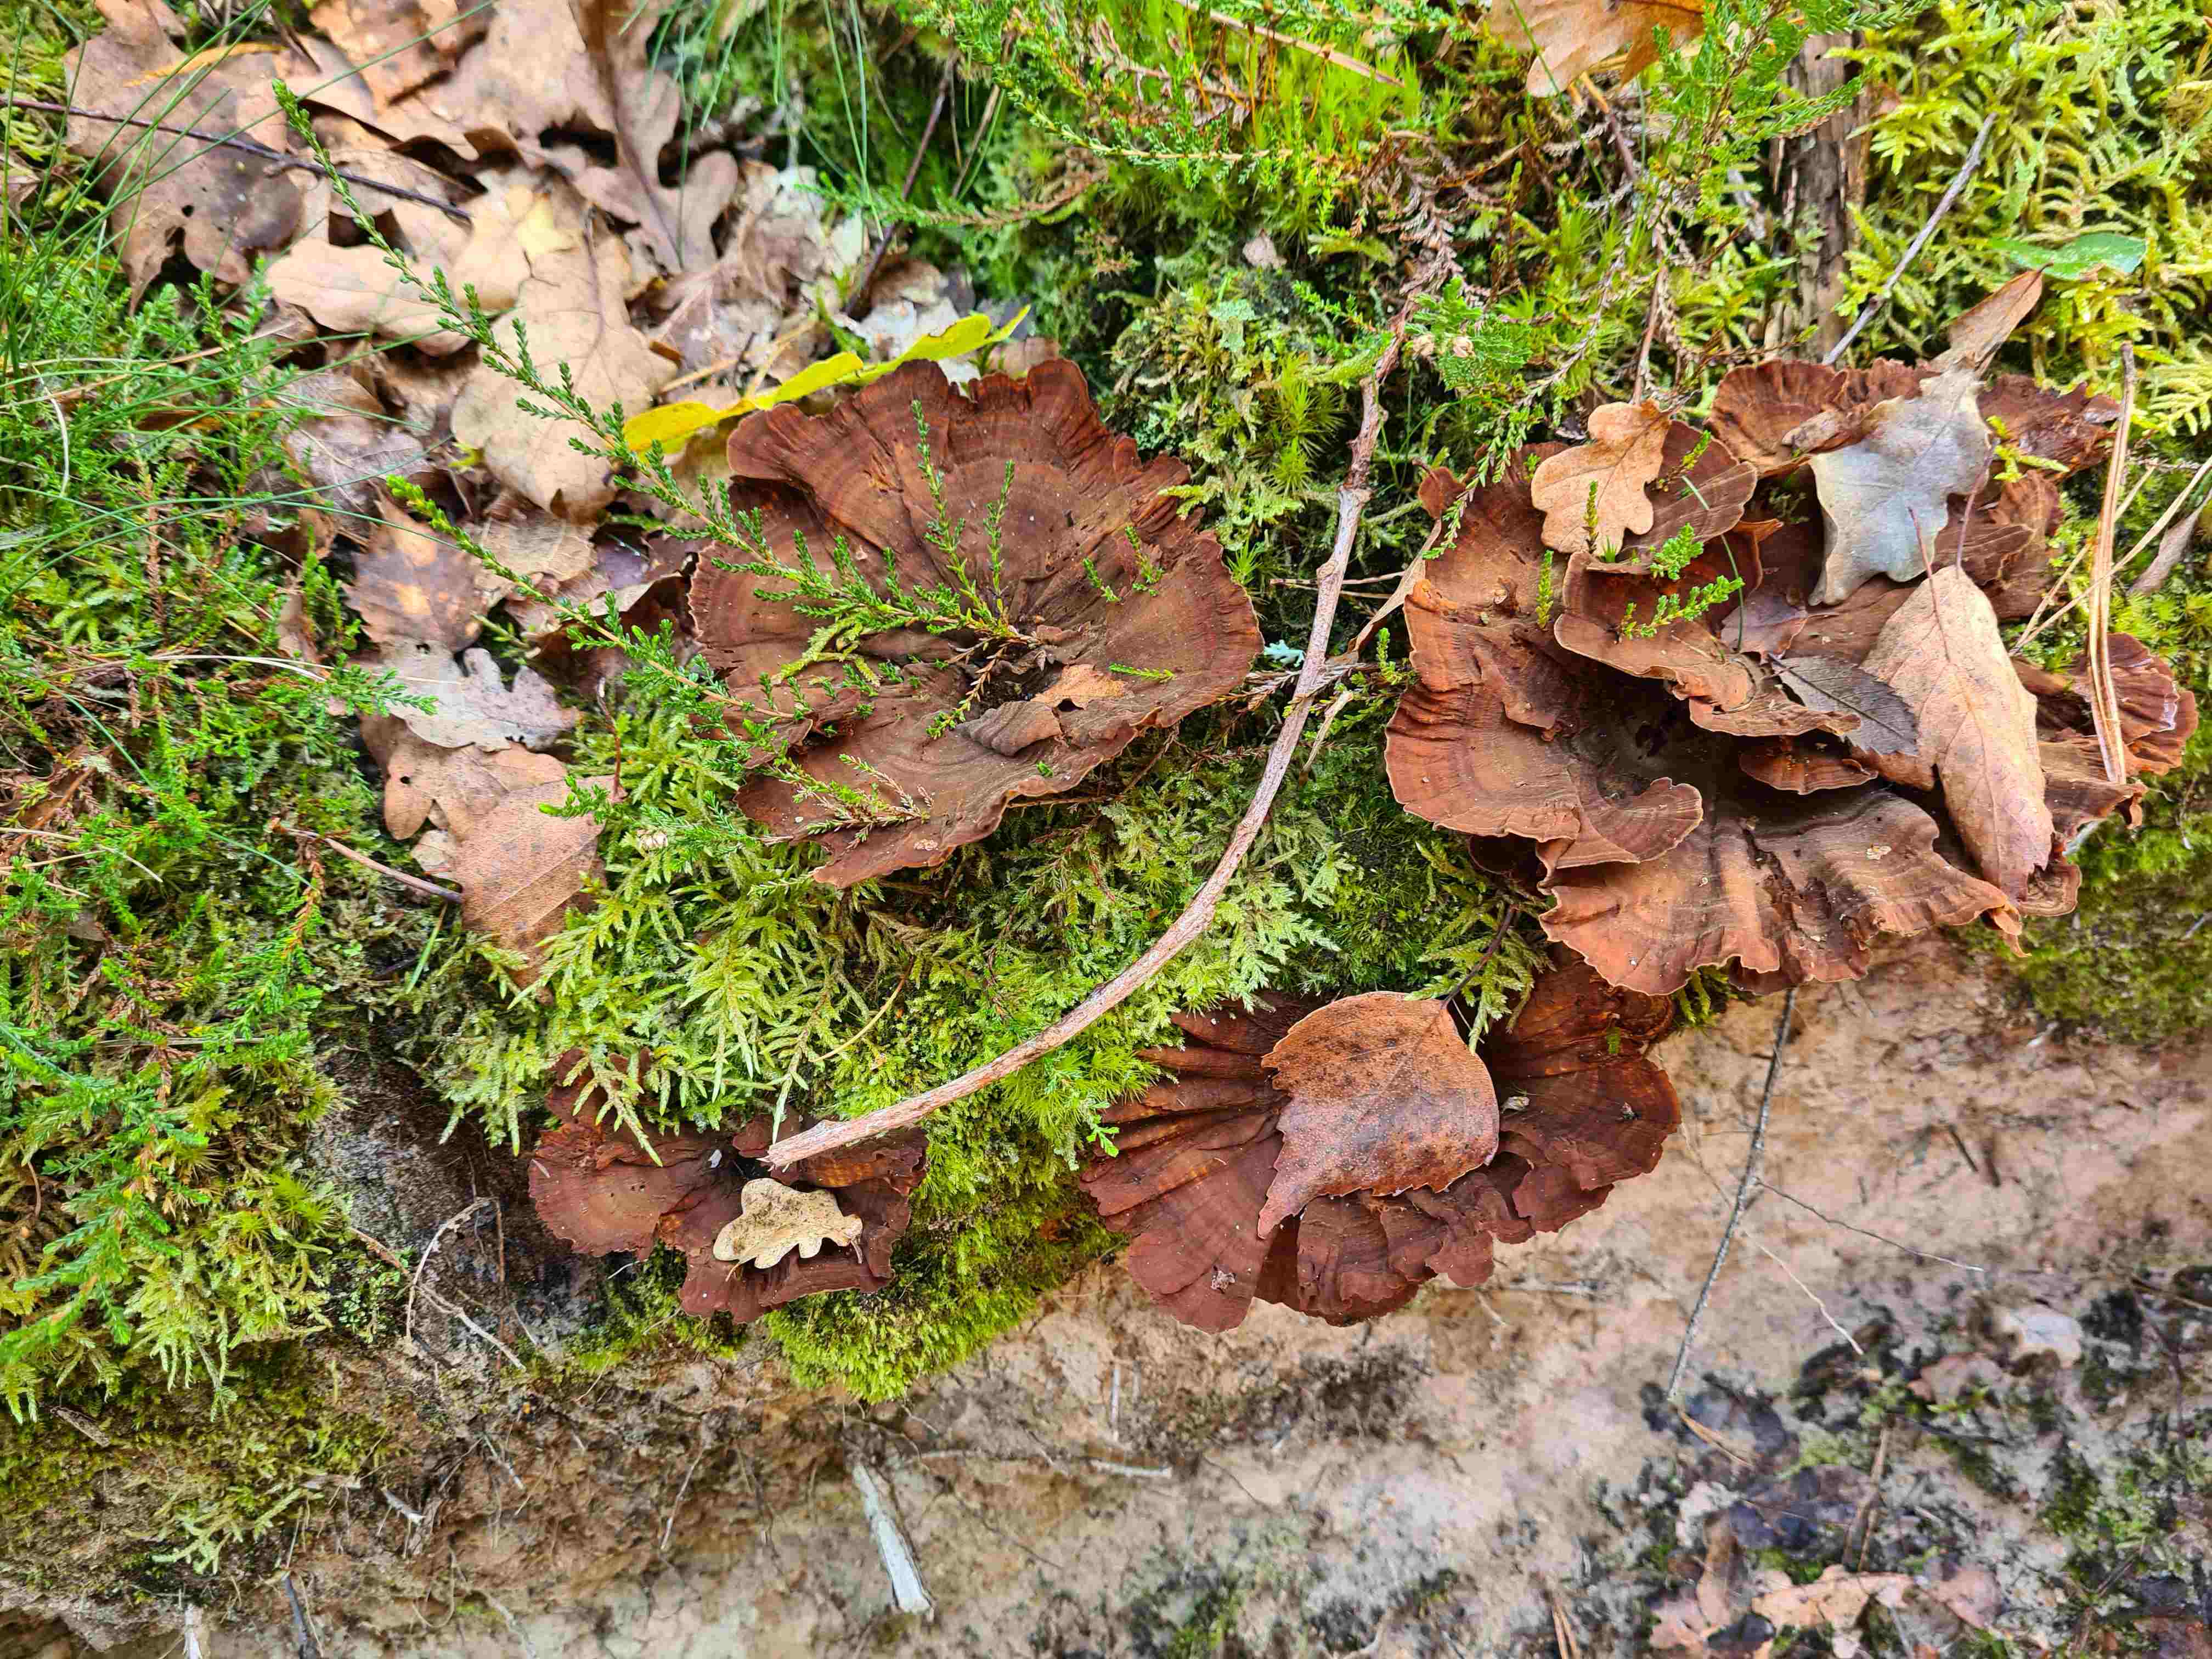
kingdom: Fungi
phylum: Basidiomycota
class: Agaricomycetes
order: Hymenochaetales
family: Hymenochaetaceae
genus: Coltricia
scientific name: Coltricia perennis
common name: almindelig sandporesvamp
